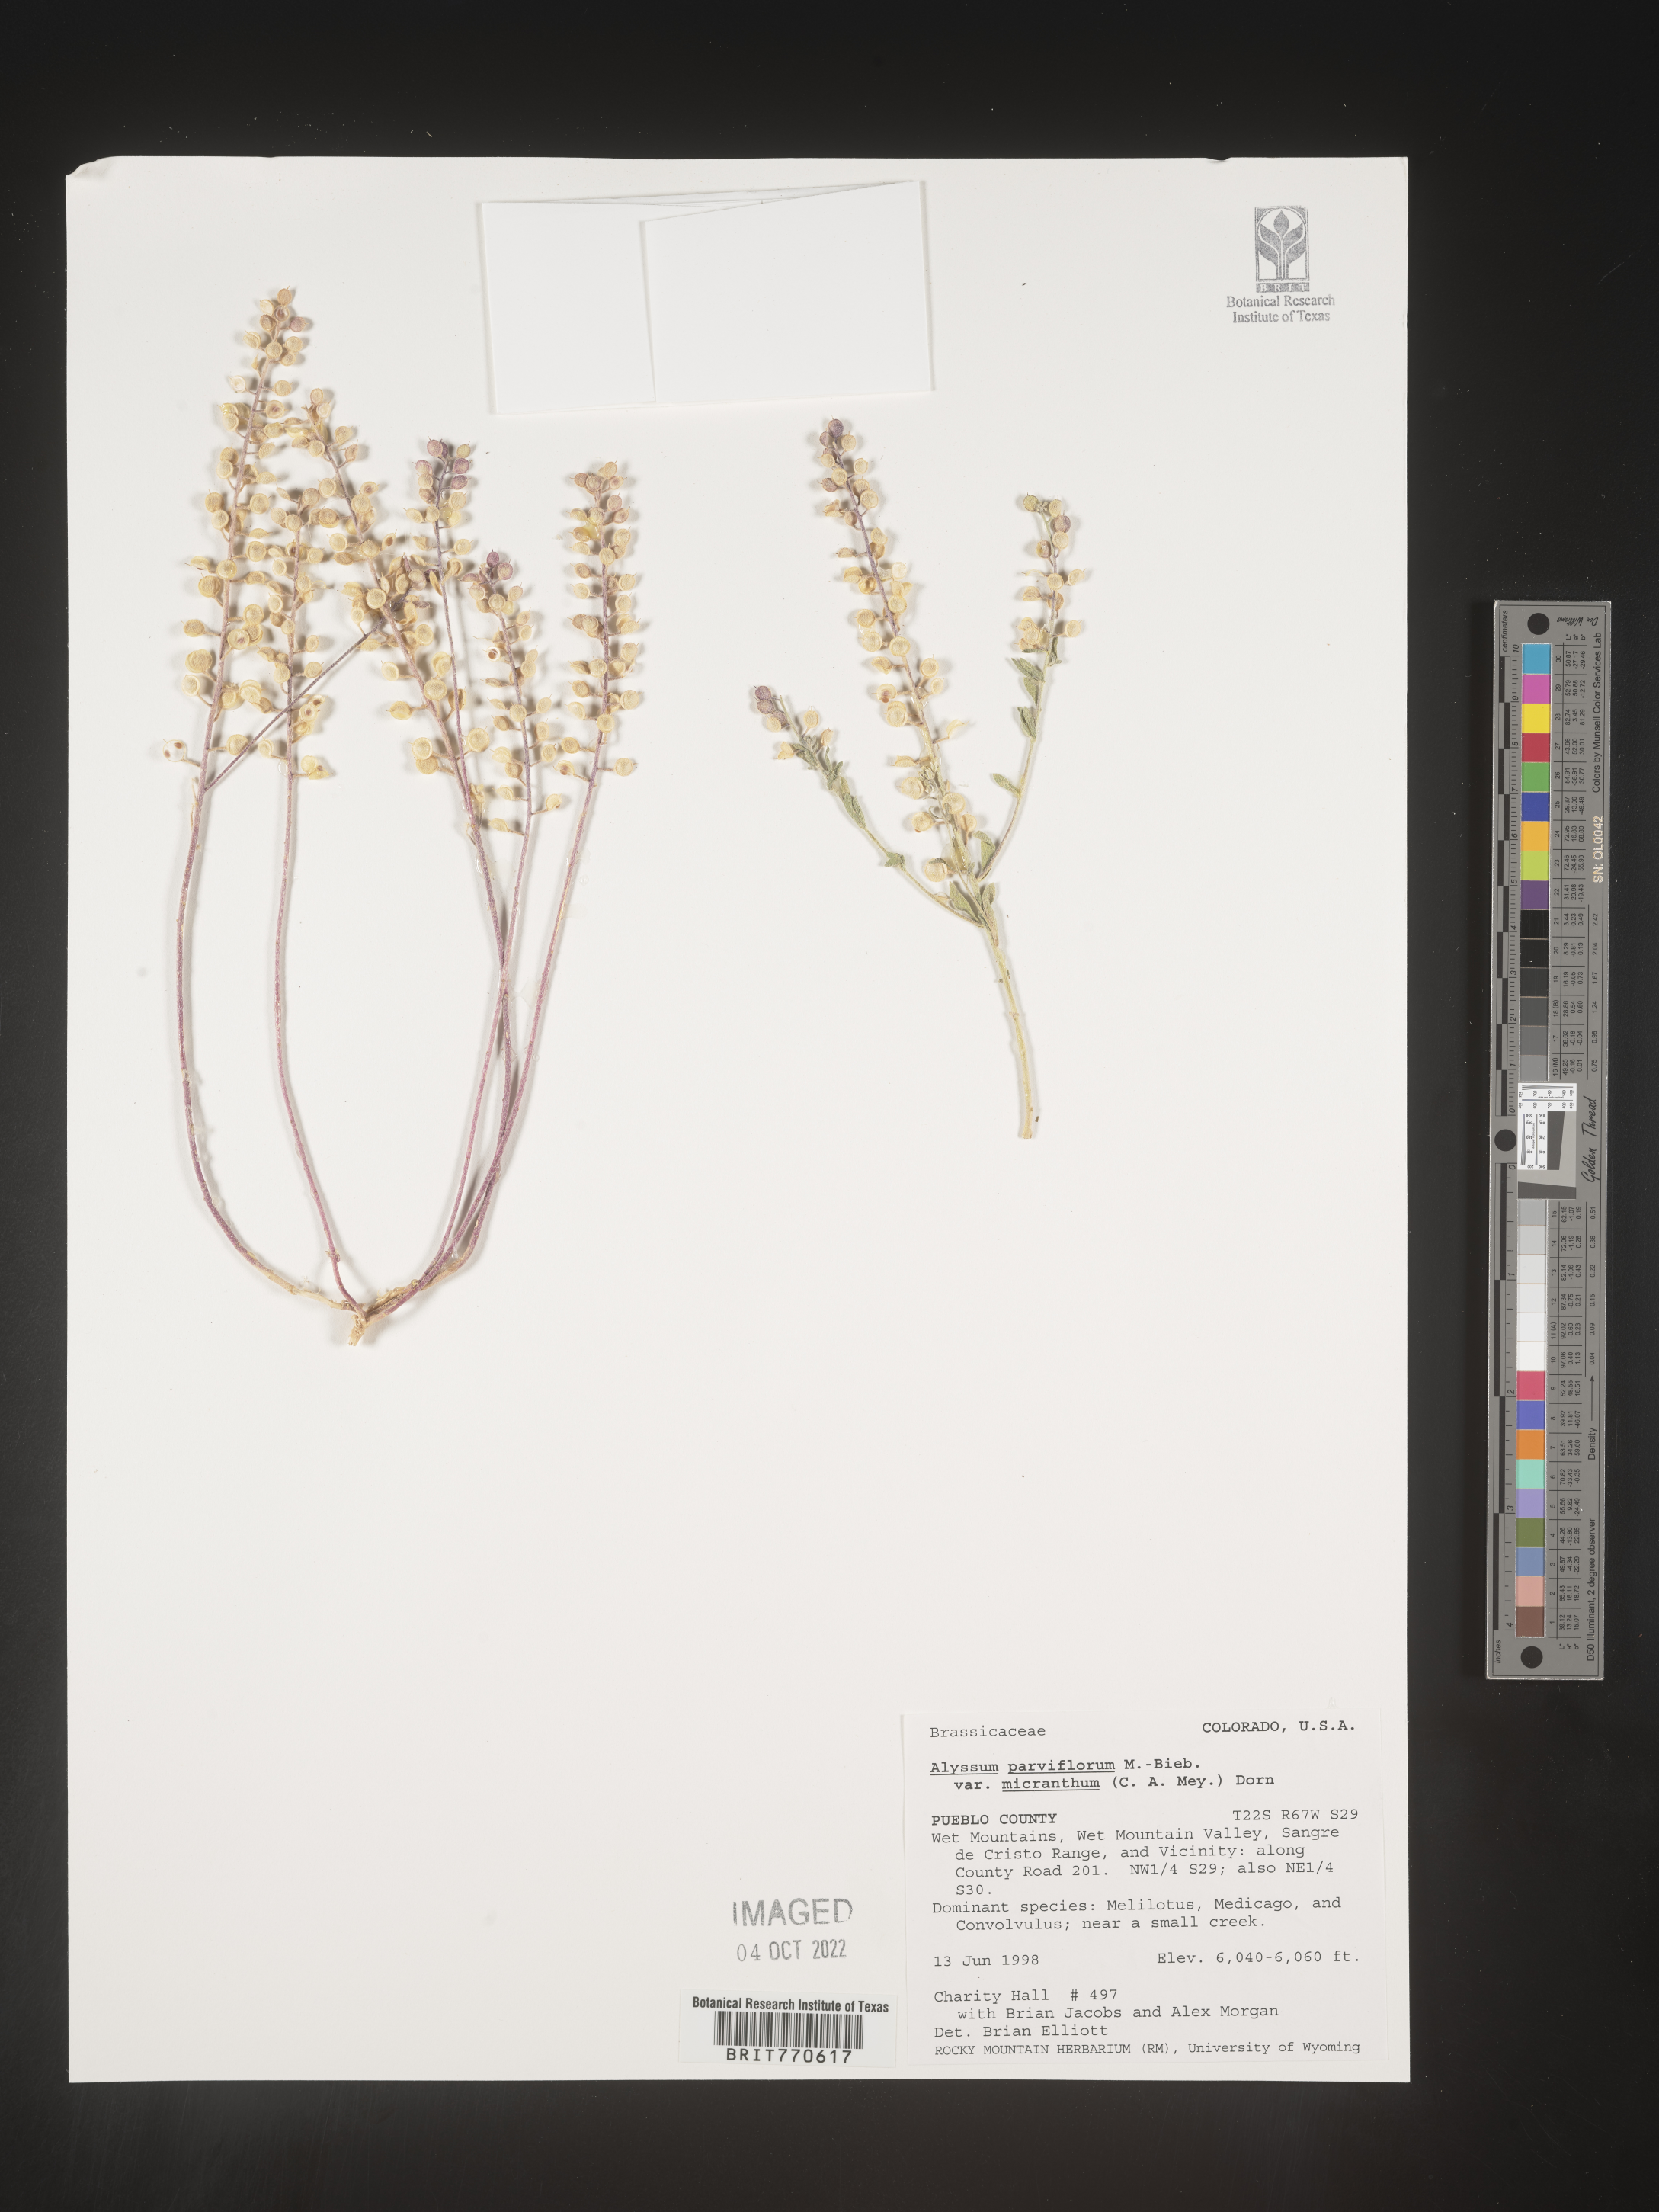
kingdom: Plantae
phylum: Tracheophyta
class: Magnoliopsida
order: Brassicales
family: Brassicaceae
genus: Alyssum
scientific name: Alyssum
